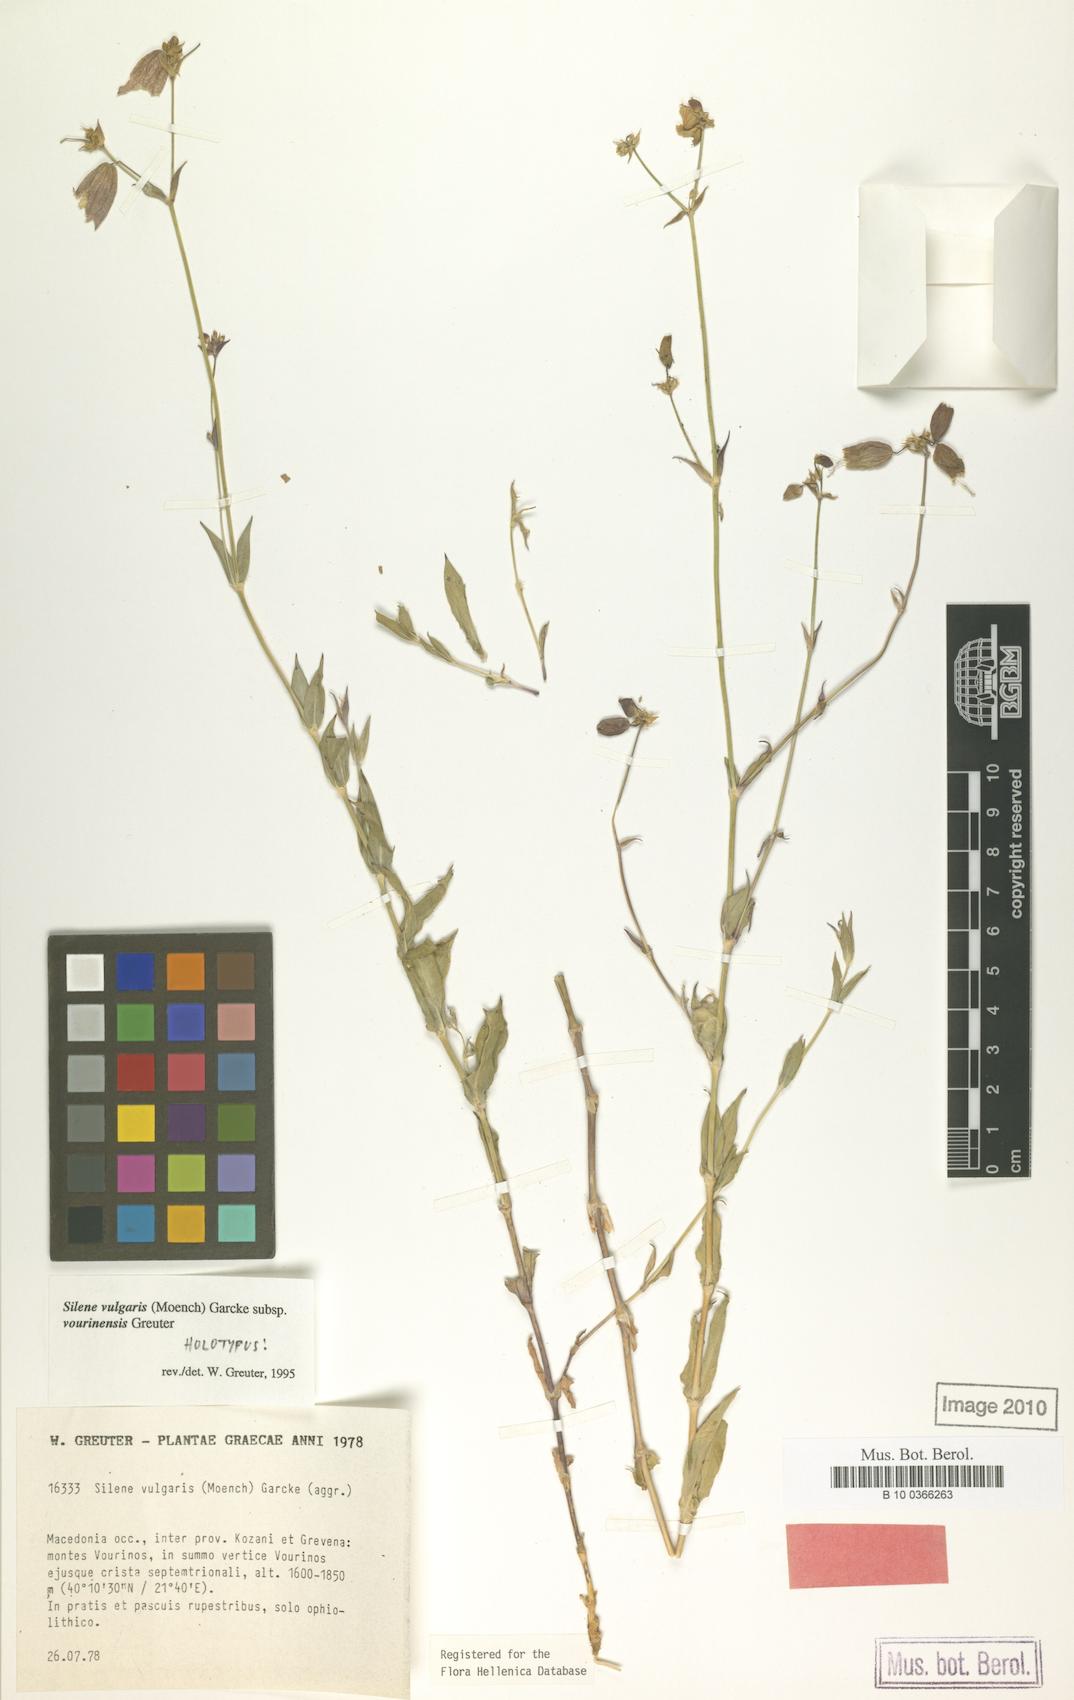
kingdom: Plantae
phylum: Tracheophyta
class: Magnoliopsida
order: Caryophyllales
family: Caryophyllaceae
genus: Silene
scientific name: Silene vulgaris
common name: Bladder campion
